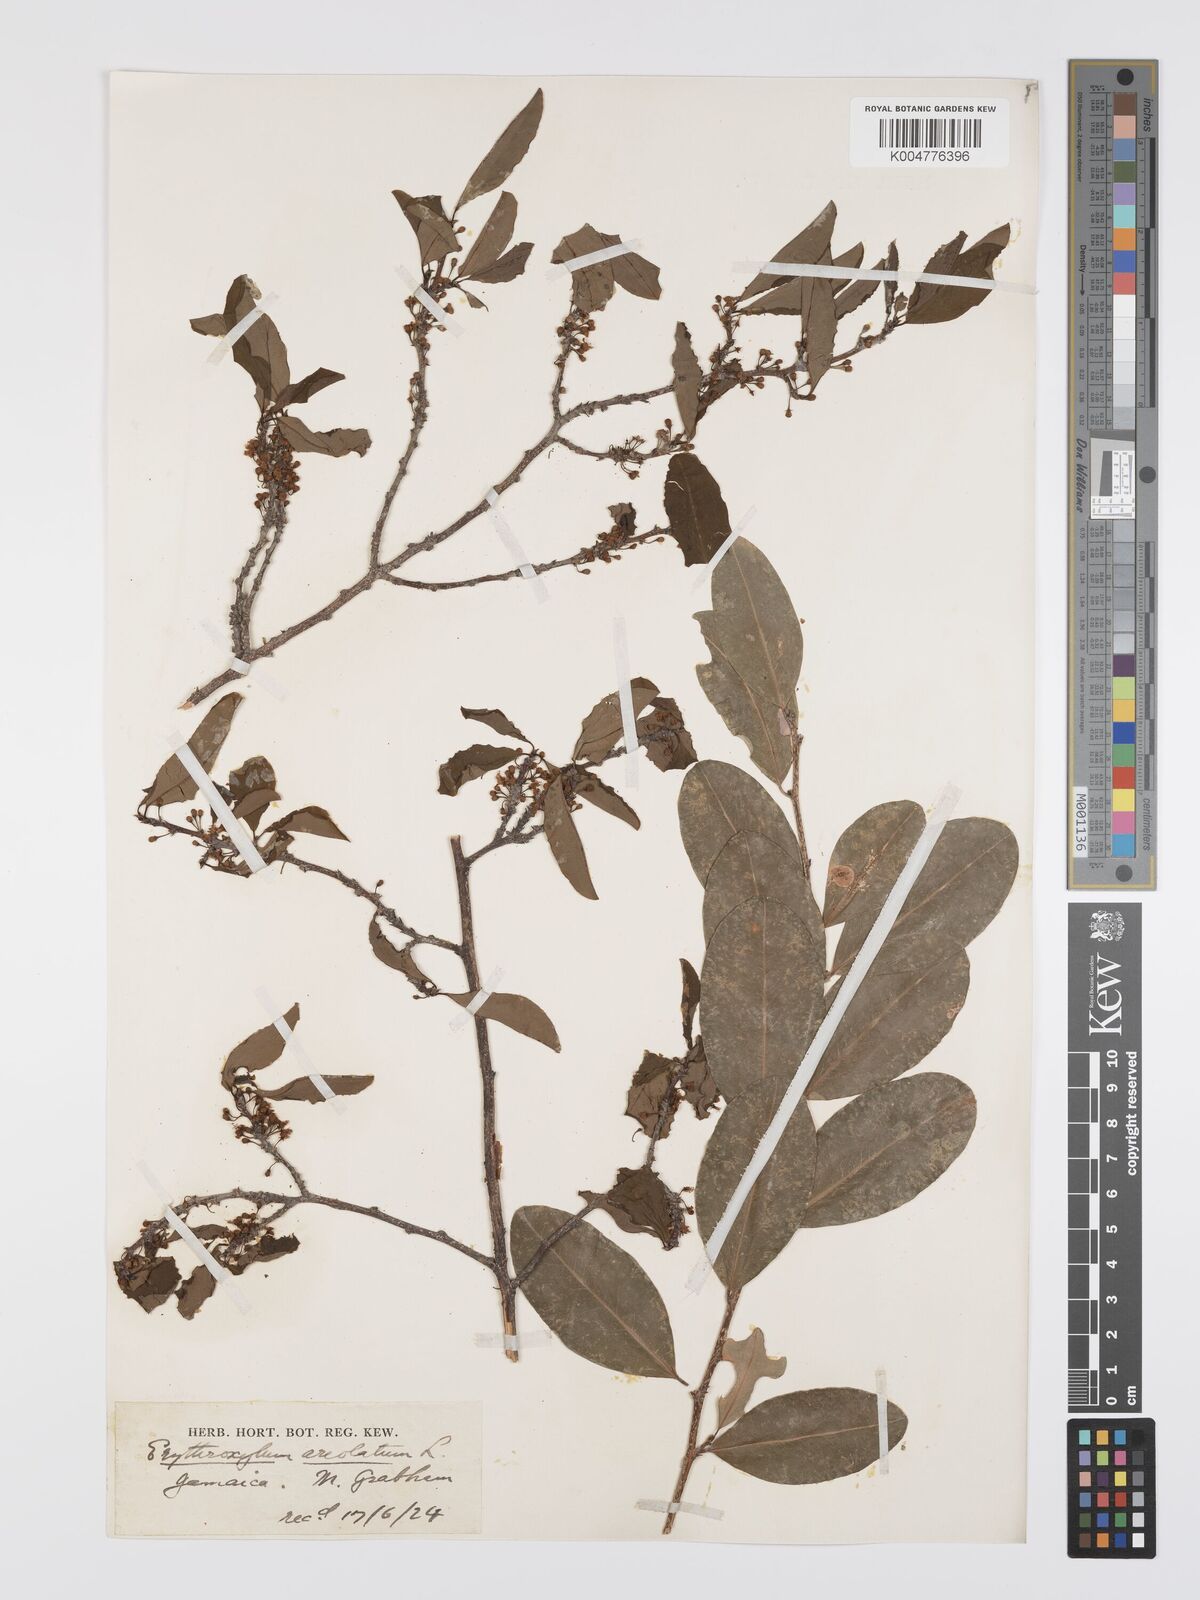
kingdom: Plantae
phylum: Tracheophyta
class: Magnoliopsida
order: Malpighiales
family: Erythroxylaceae
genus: Erythroxylum
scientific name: Erythroxylum areolatum
